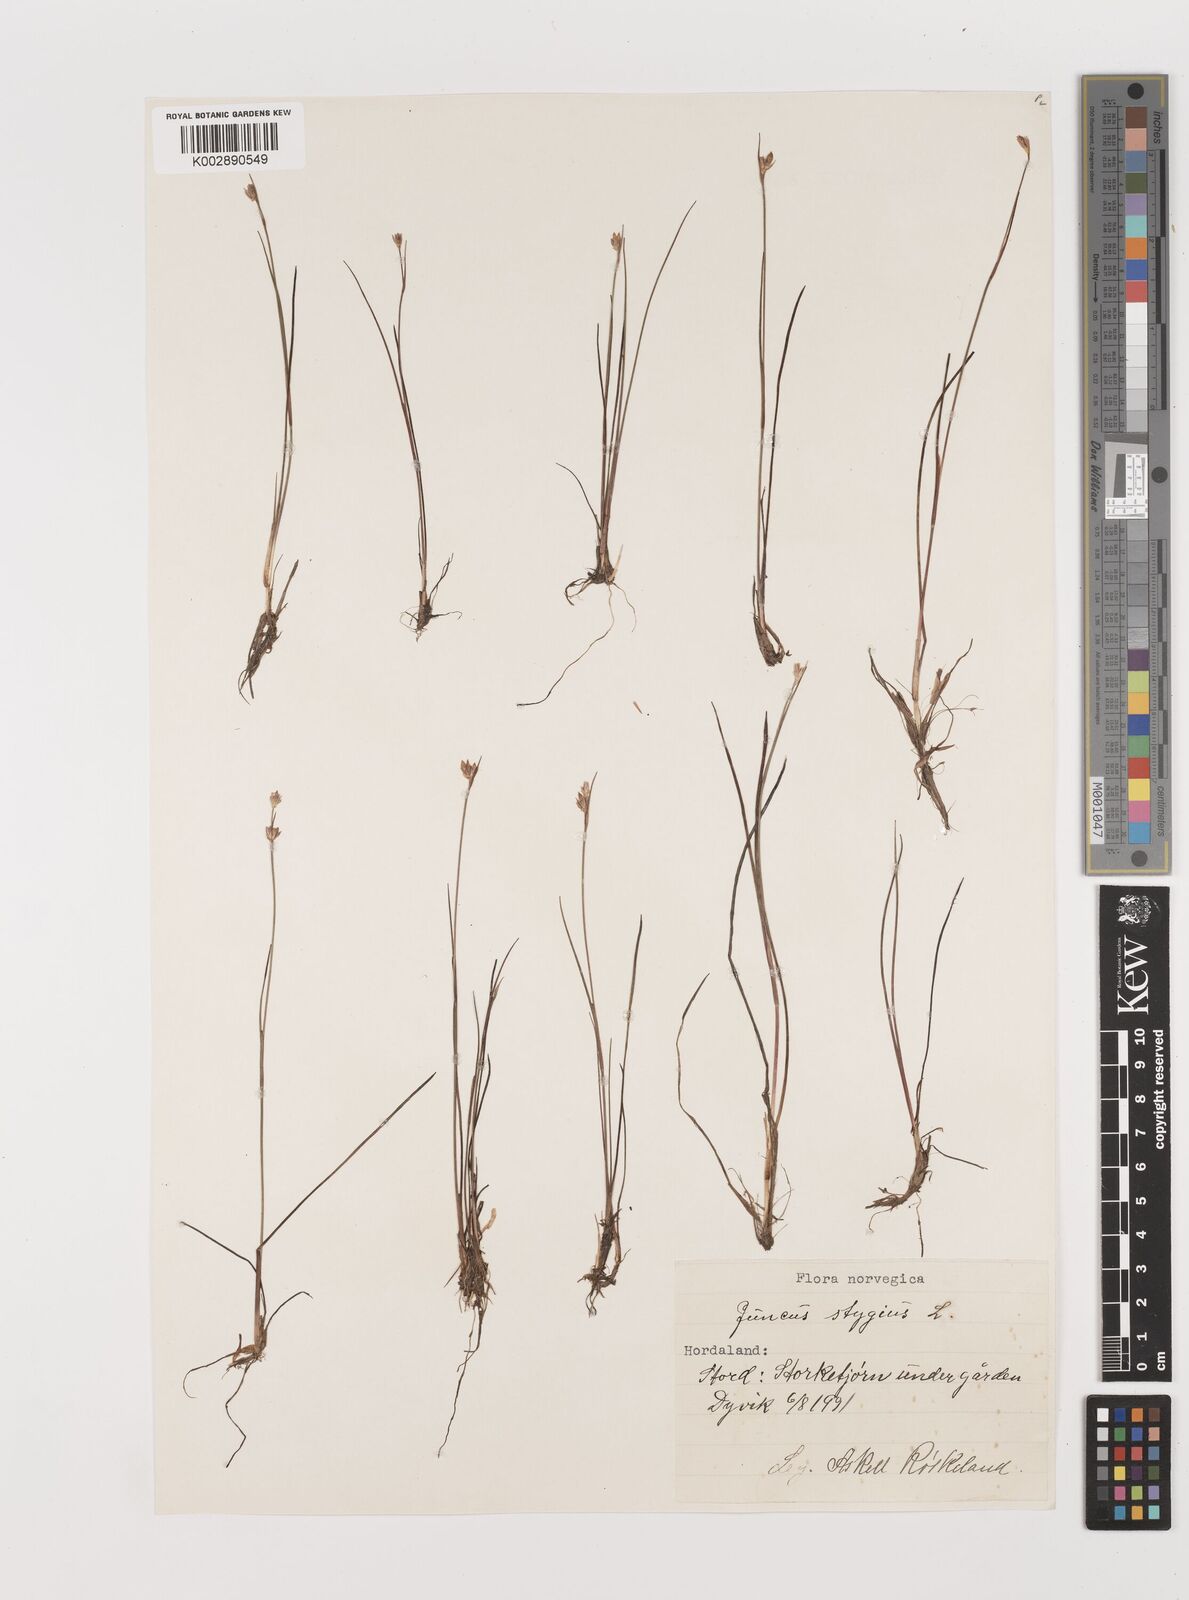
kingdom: Plantae
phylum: Tracheophyta
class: Liliopsida
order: Poales
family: Juncaceae
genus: Juncus
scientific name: Juncus stygius
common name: Bog rush
